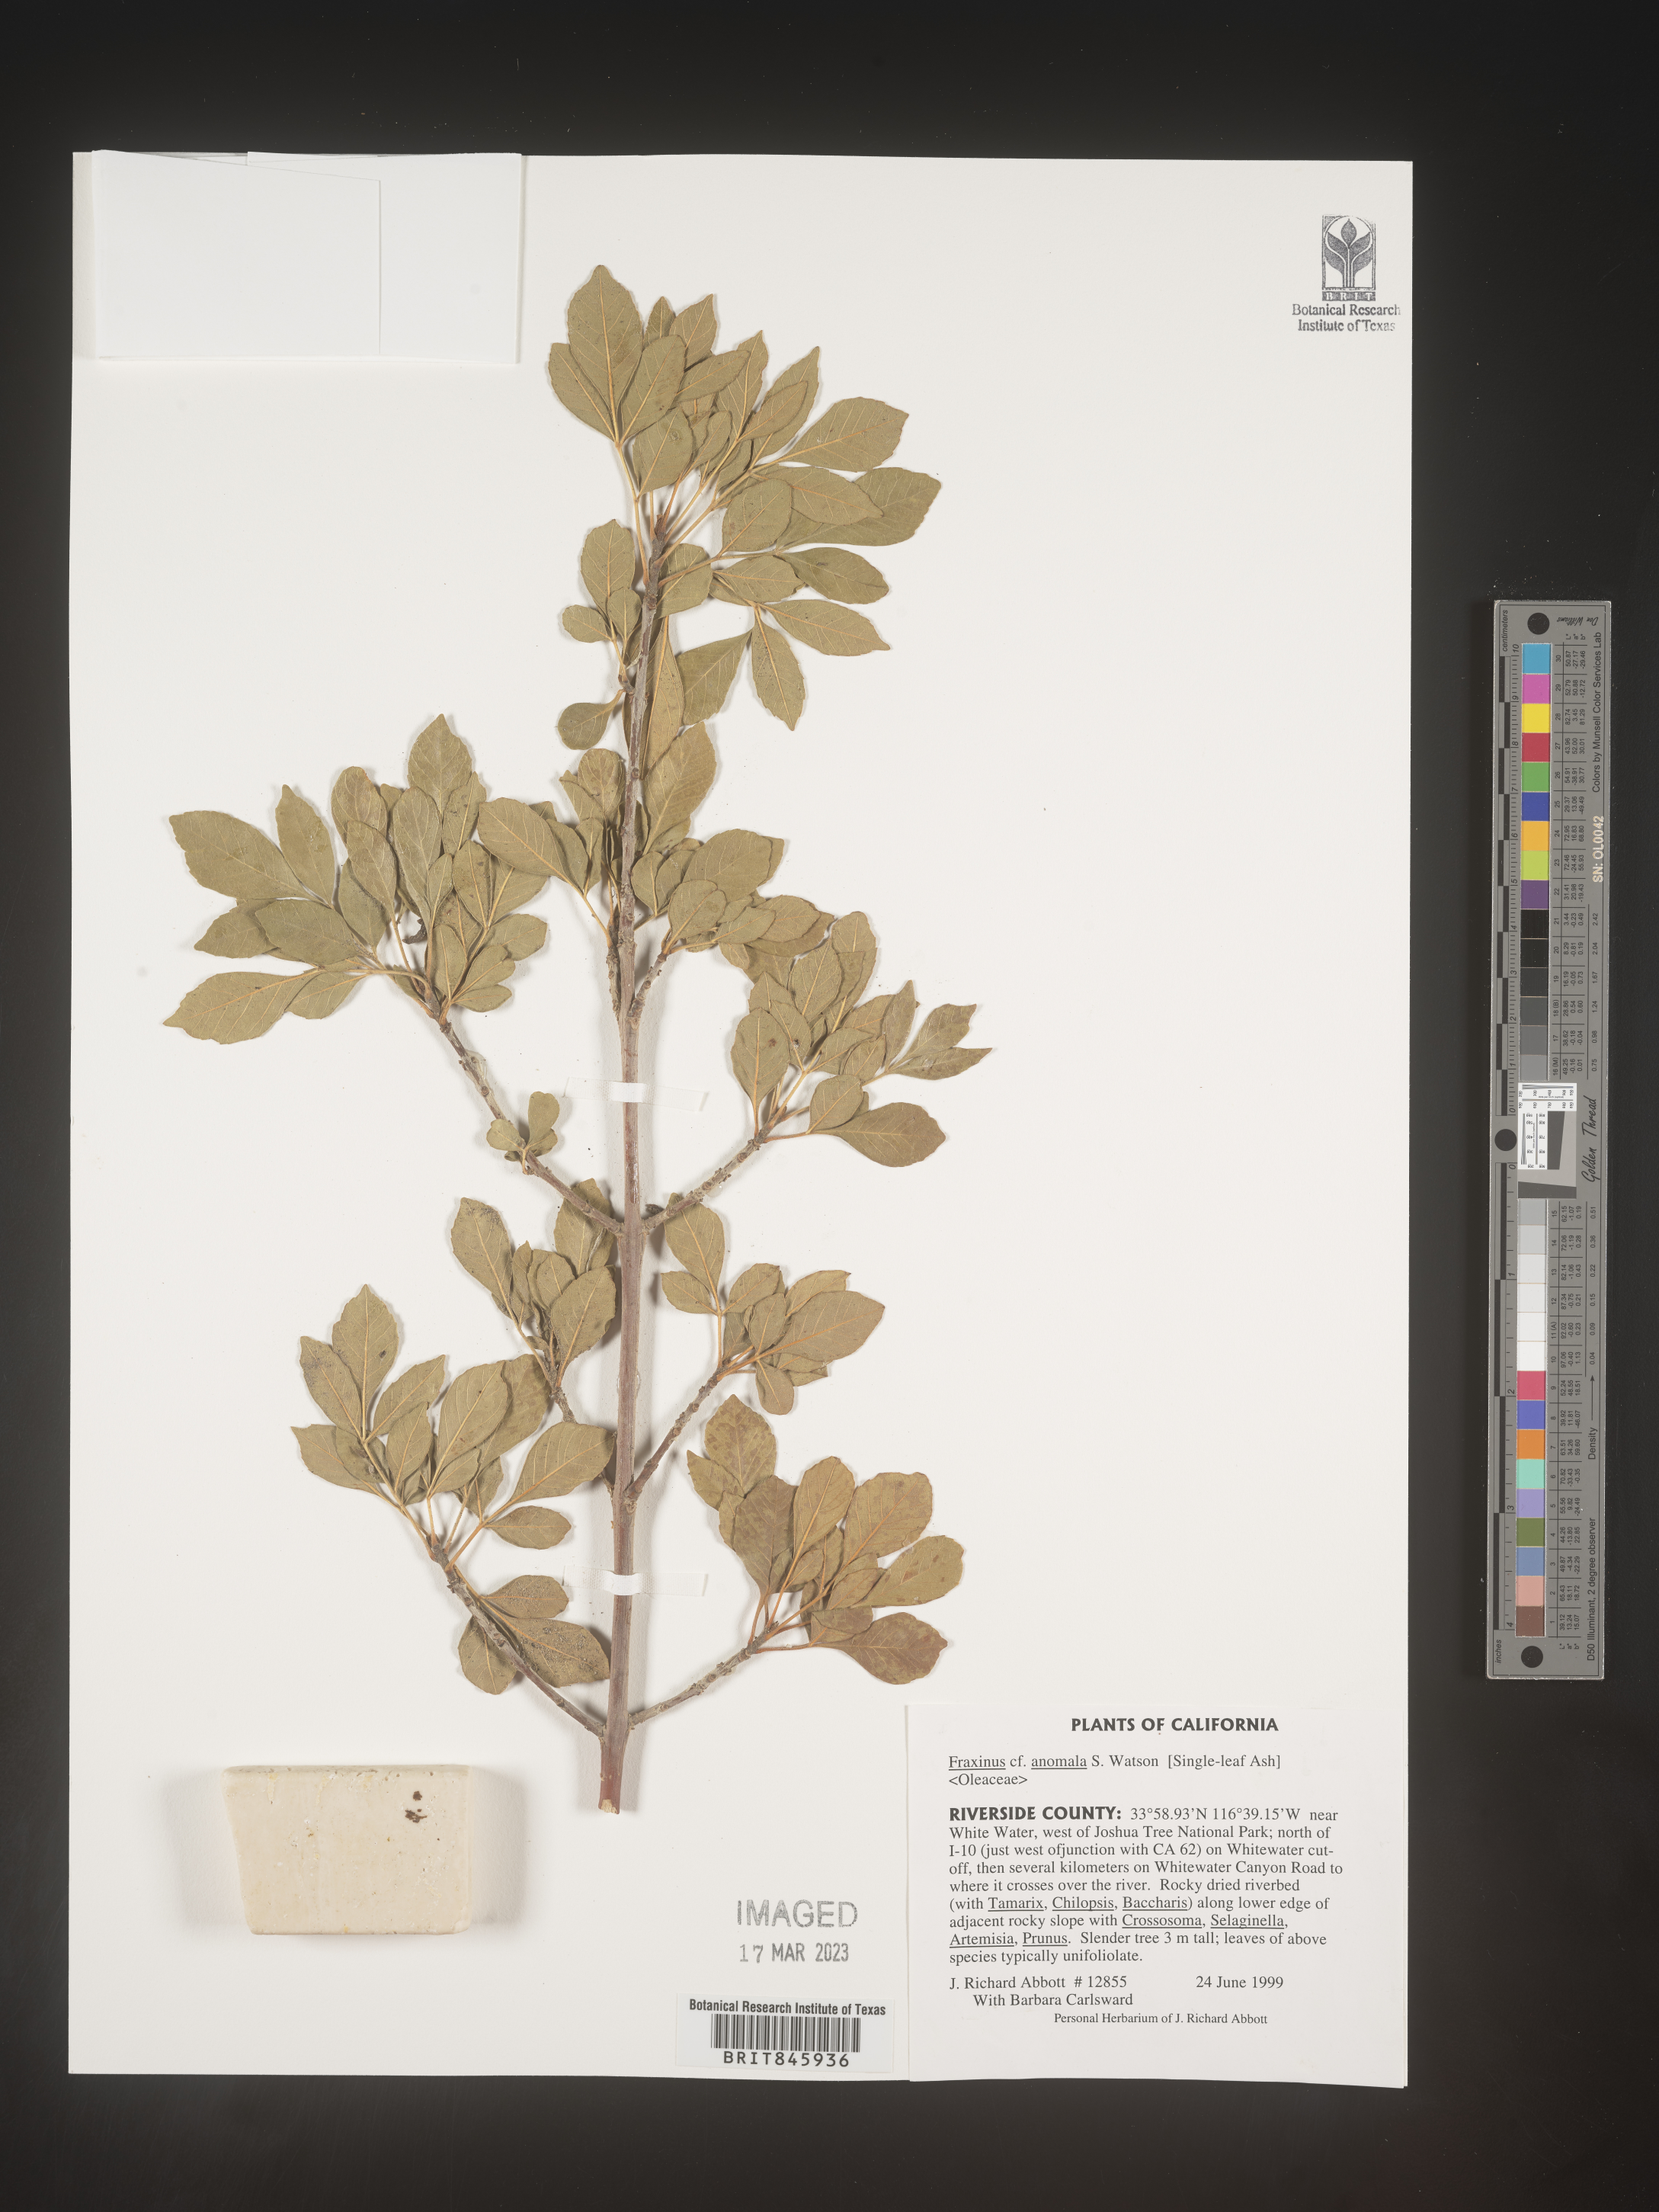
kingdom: Plantae
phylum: Tracheophyta
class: Magnoliopsida
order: Lamiales
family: Oleaceae
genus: Fraxinus
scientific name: Fraxinus anomala
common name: Utah ash
